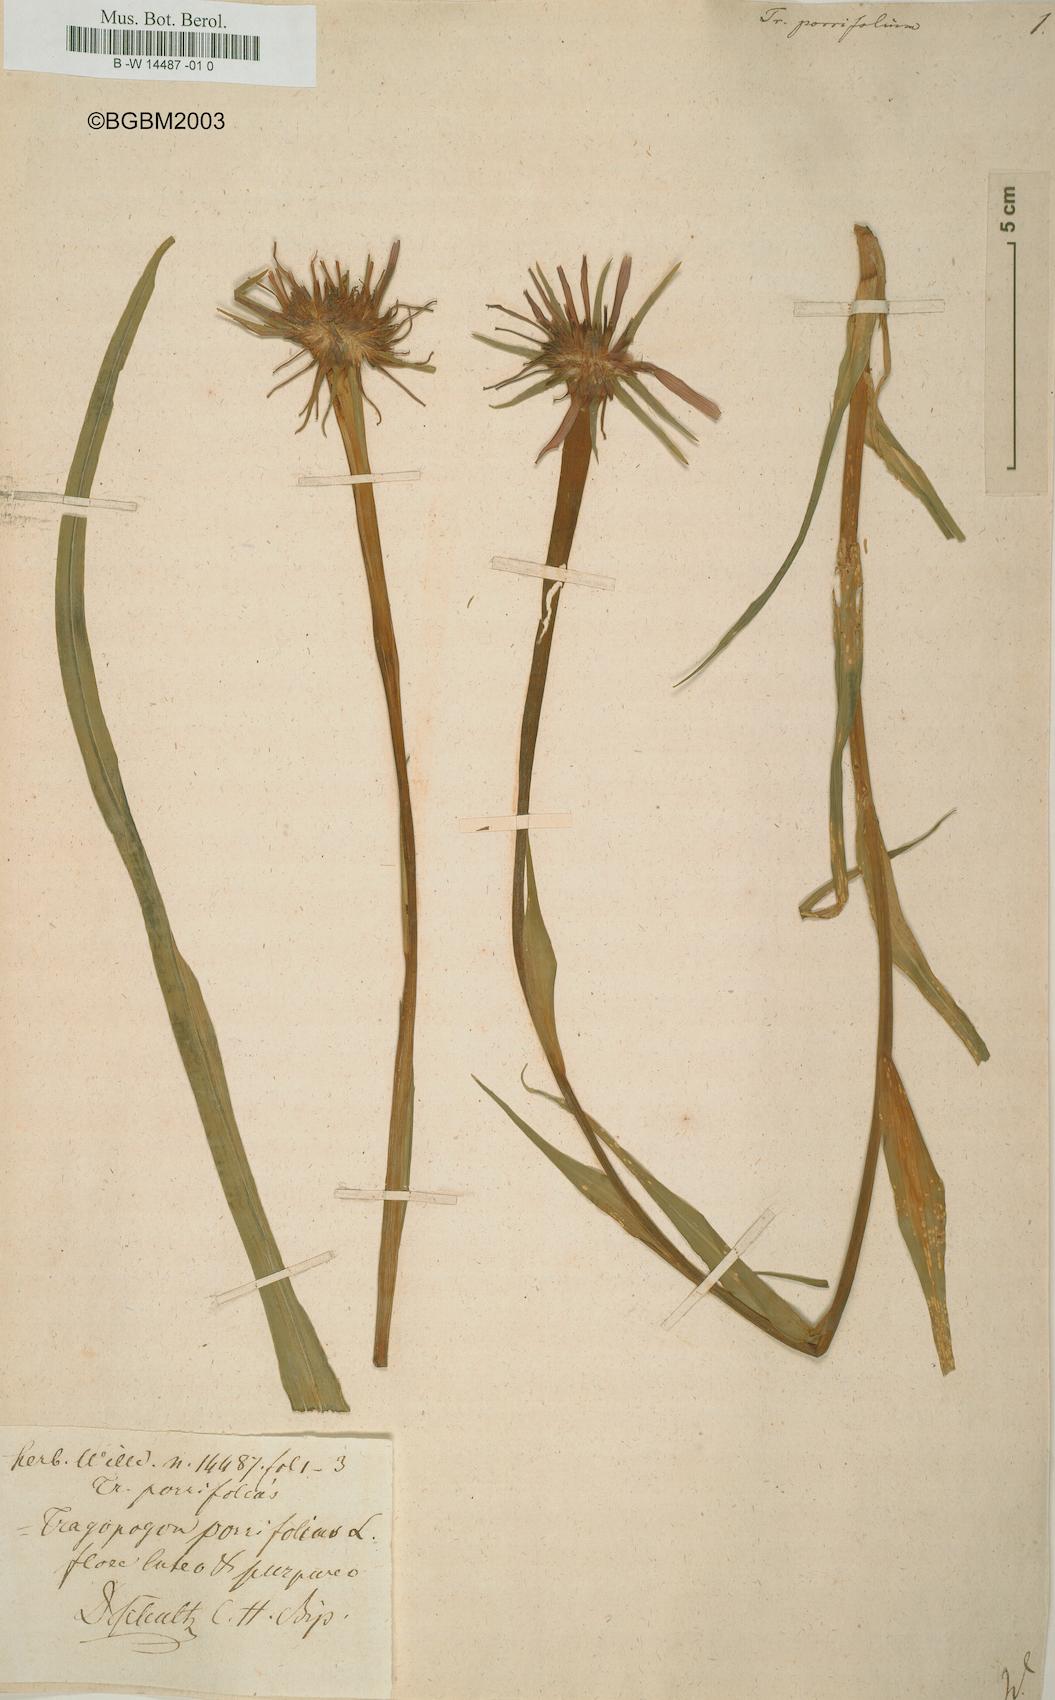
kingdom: Plantae
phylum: Tracheophyta
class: Magnoliopsida
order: Asterales
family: Asteraceae
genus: Tragopogon
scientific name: Tragopogon porrifolius
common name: Salsify
